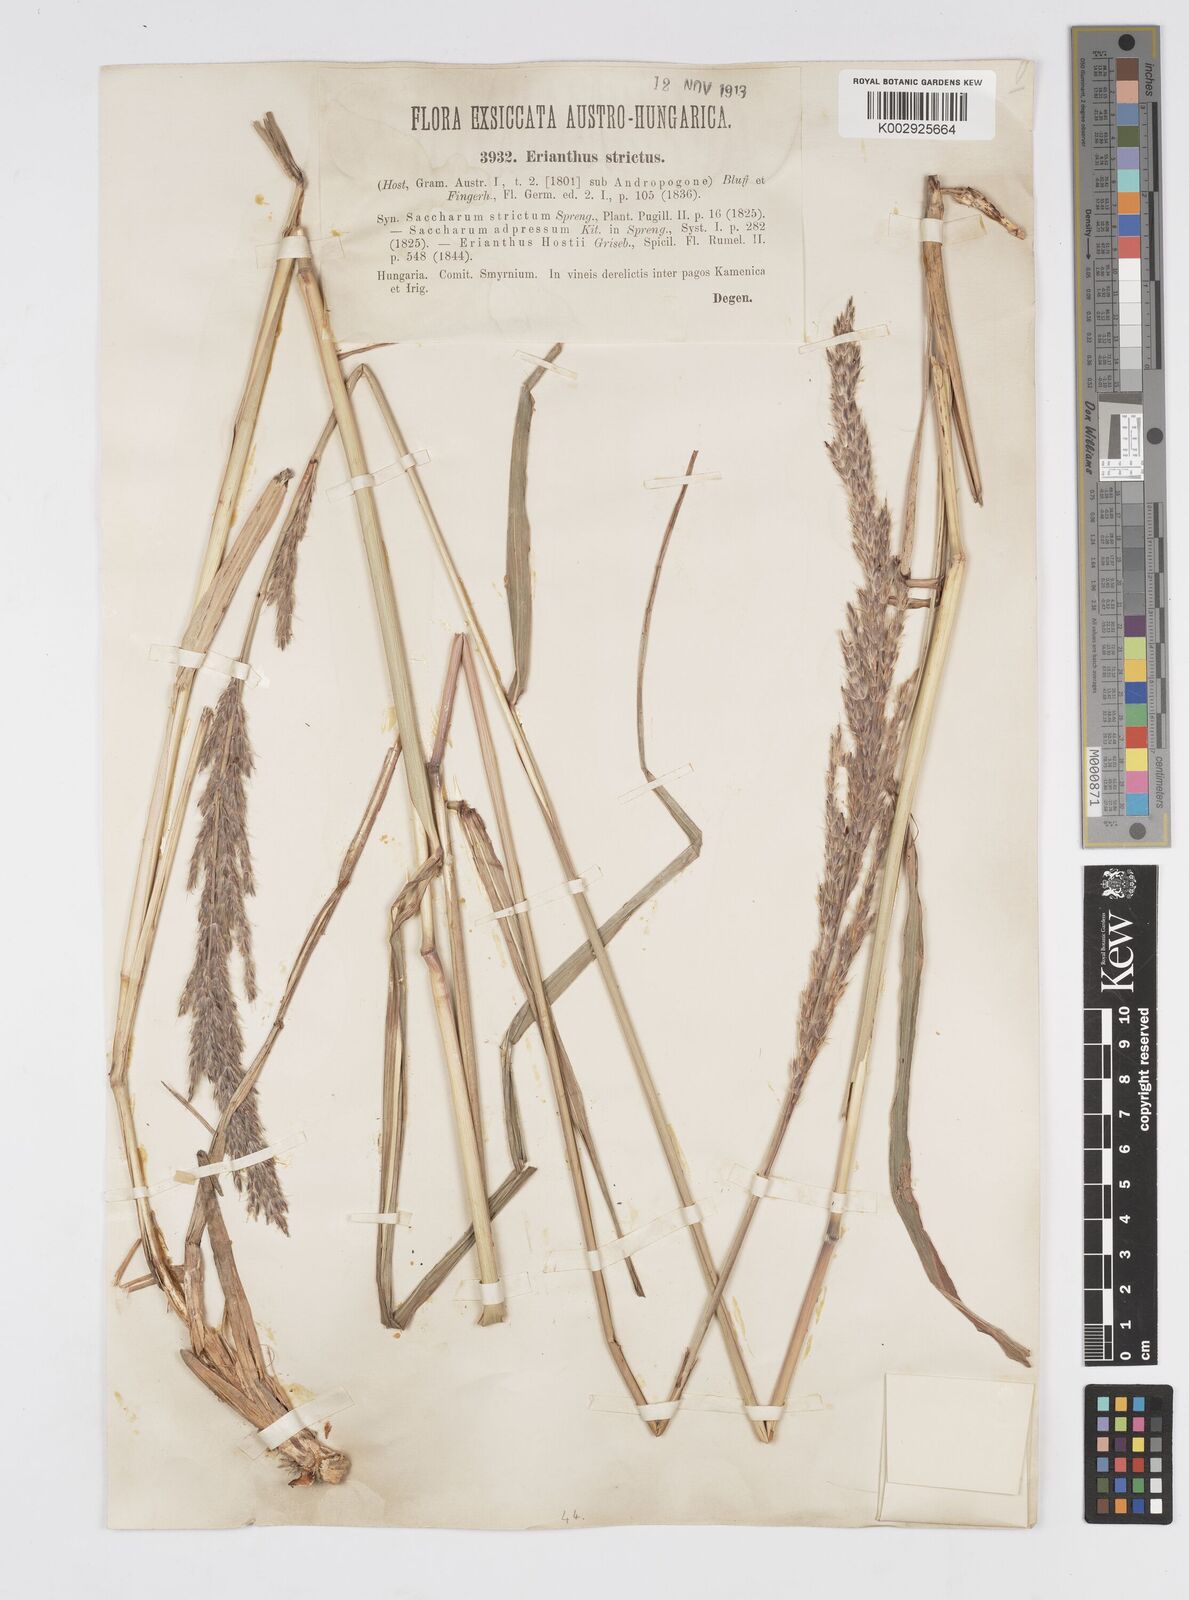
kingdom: Plantae
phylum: Tracheophyta
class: Liliopsida
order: Poales
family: Poaceae
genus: Tripidium
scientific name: Tripidium strictum
